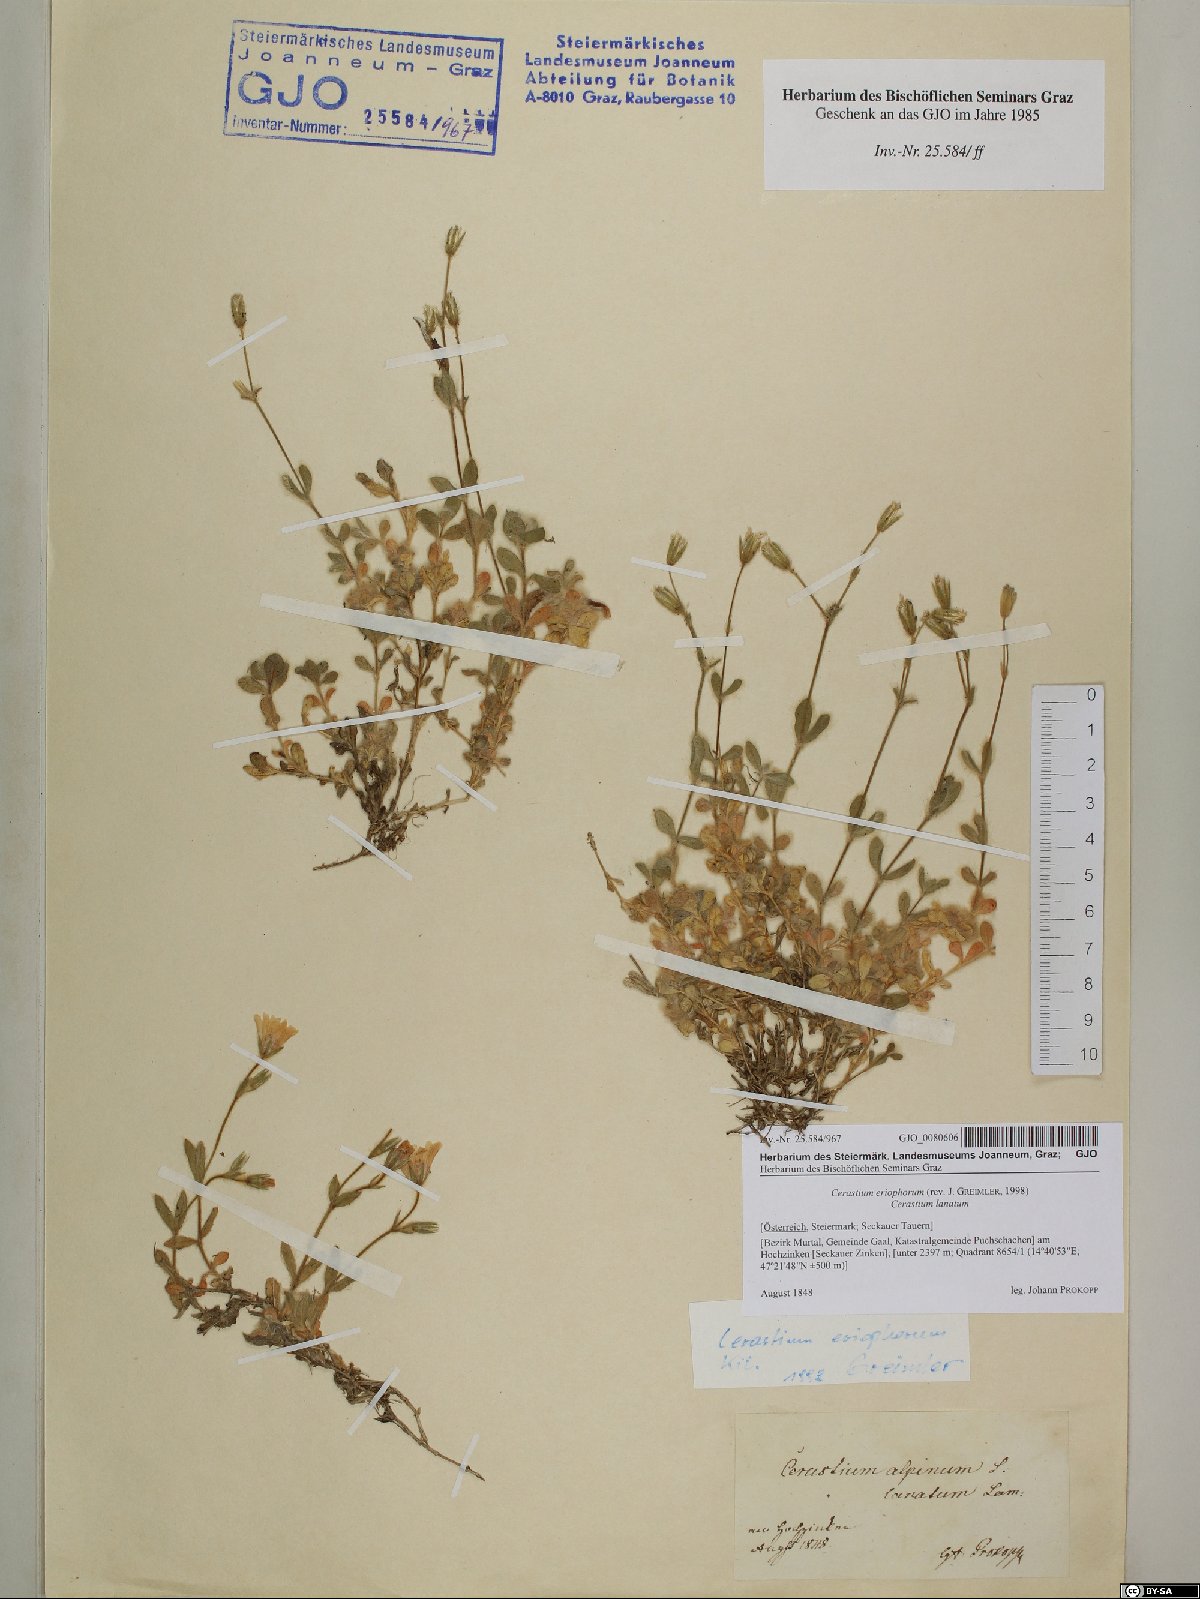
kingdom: Plantae
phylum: Tracheophyta
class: Magnoliopsida
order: Caryophyllales
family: Caryophyllaceae
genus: Cerastium
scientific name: Cerastium eriophorum
